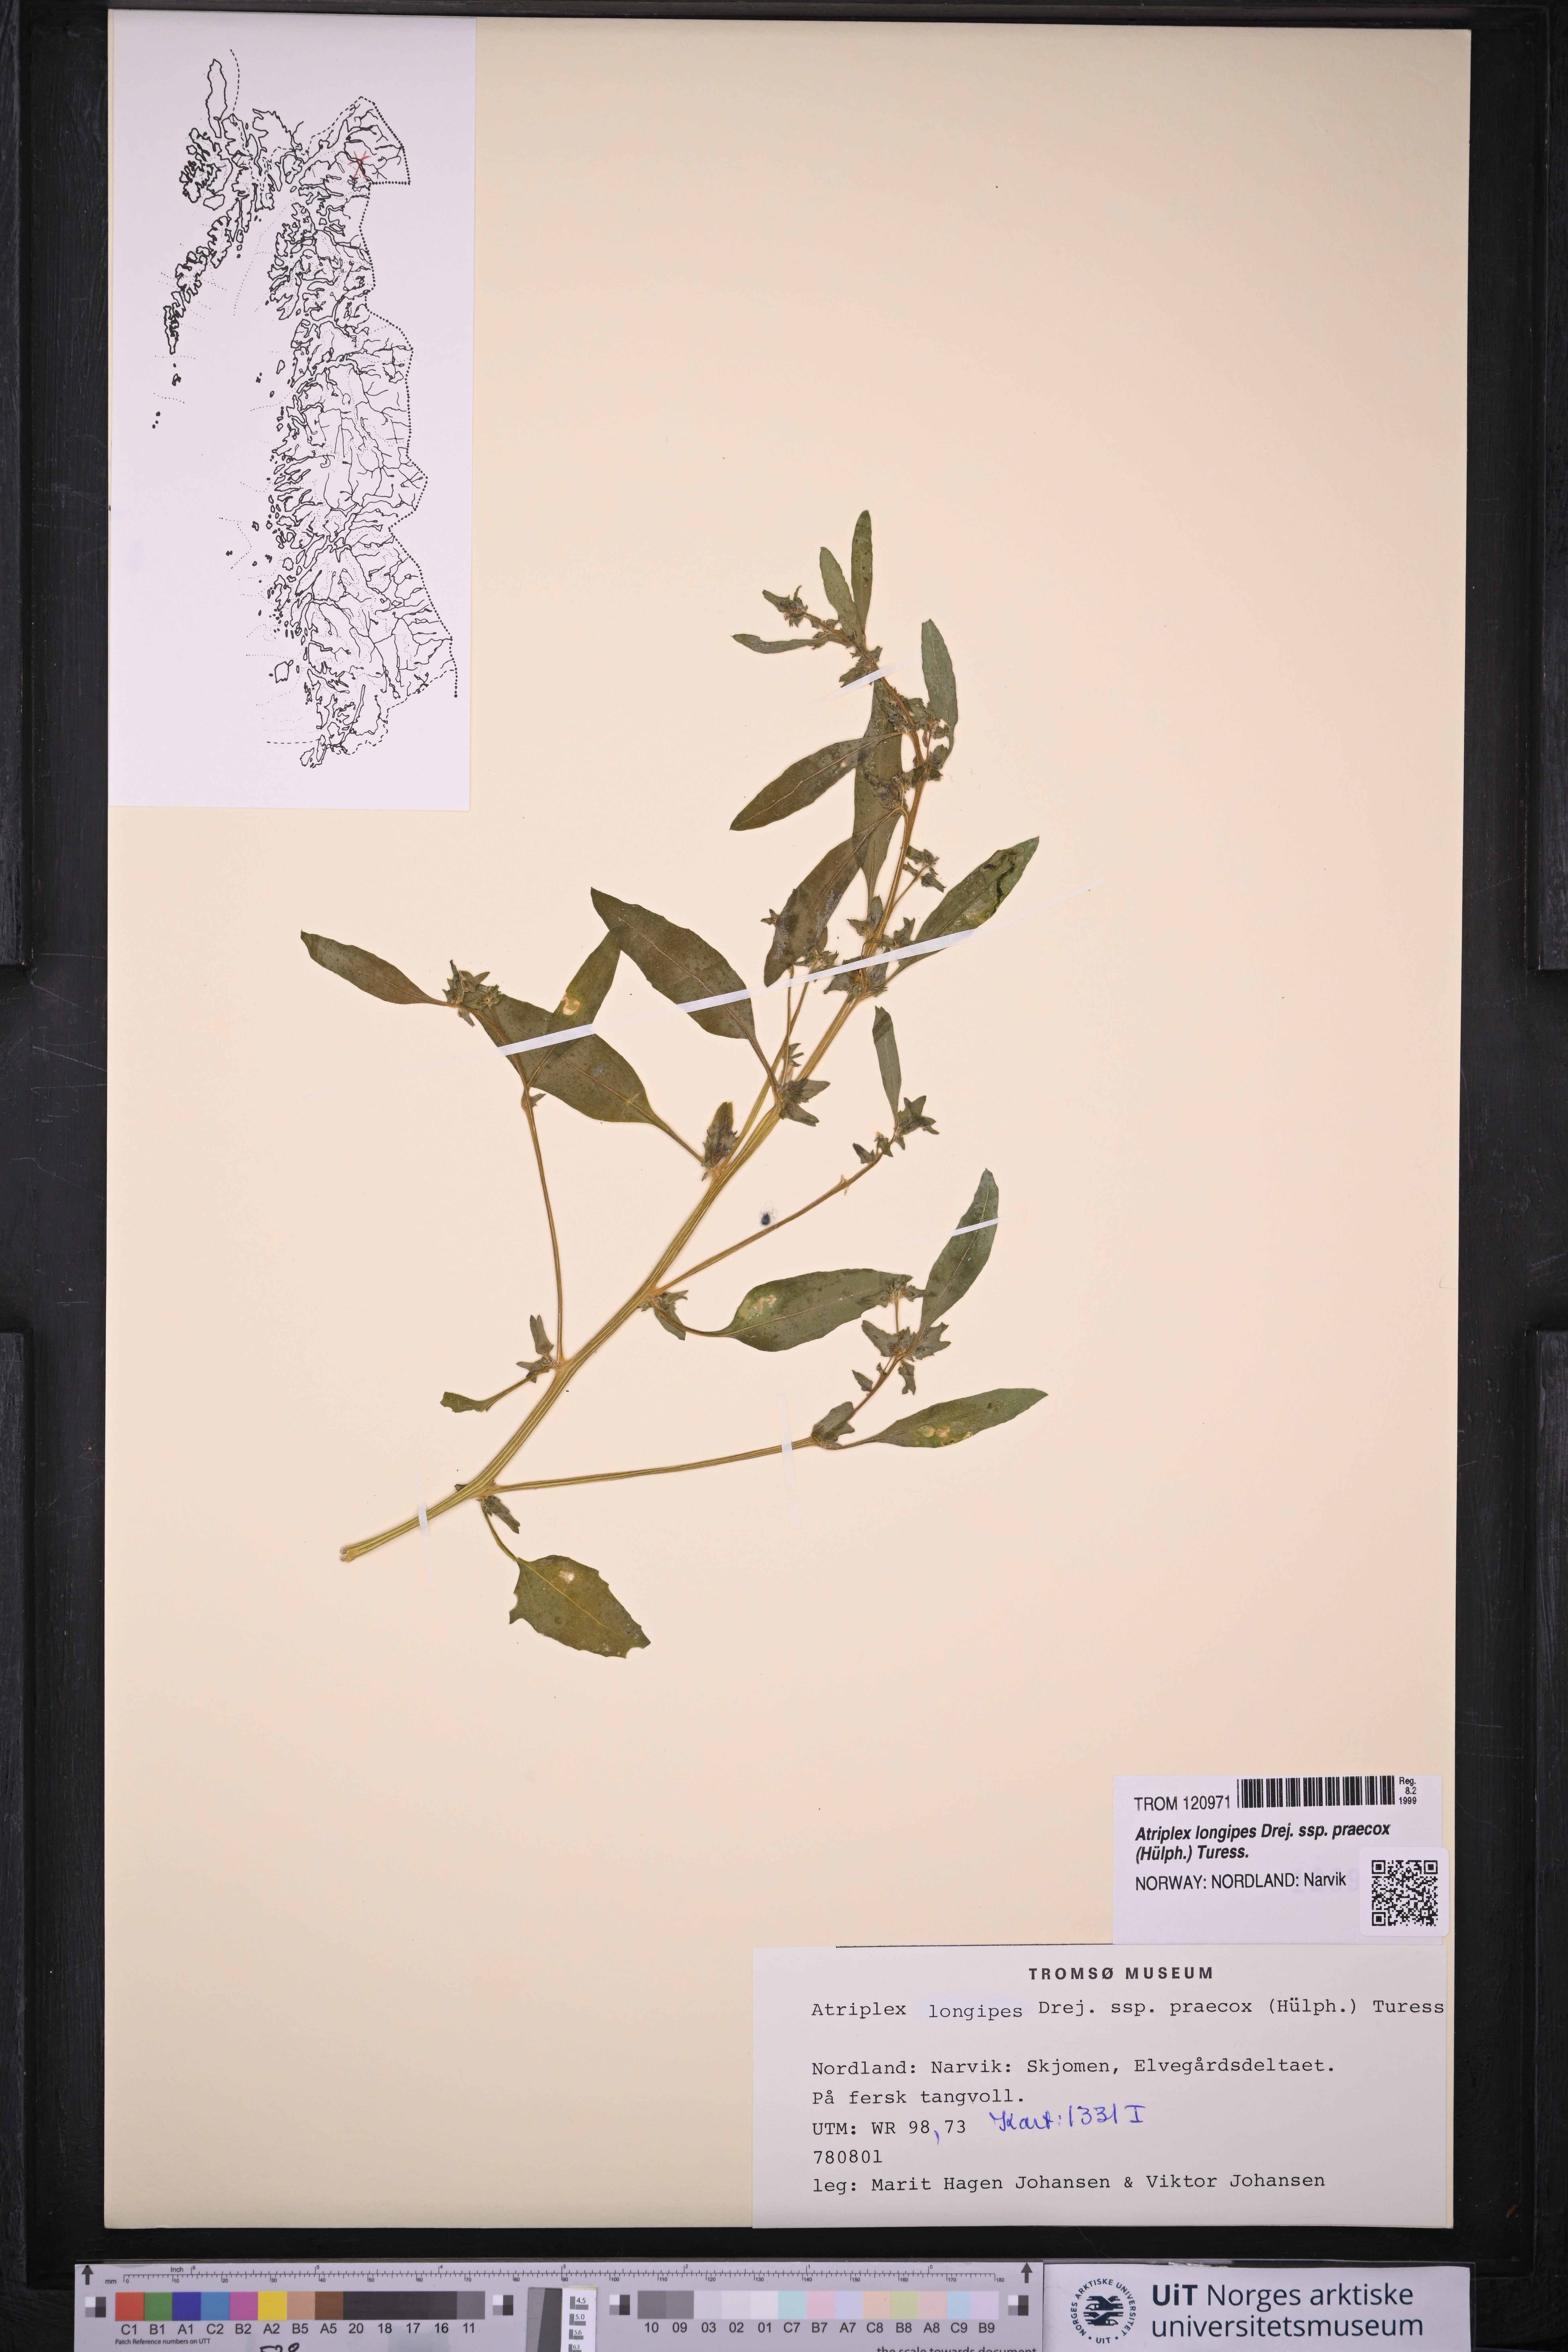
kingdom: Plantae
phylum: Tracheophyta
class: Magnoliopsida
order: Caryophyllales
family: Amaranthaceae
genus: Atriplex
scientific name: Atriplex praecox
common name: Early orache
